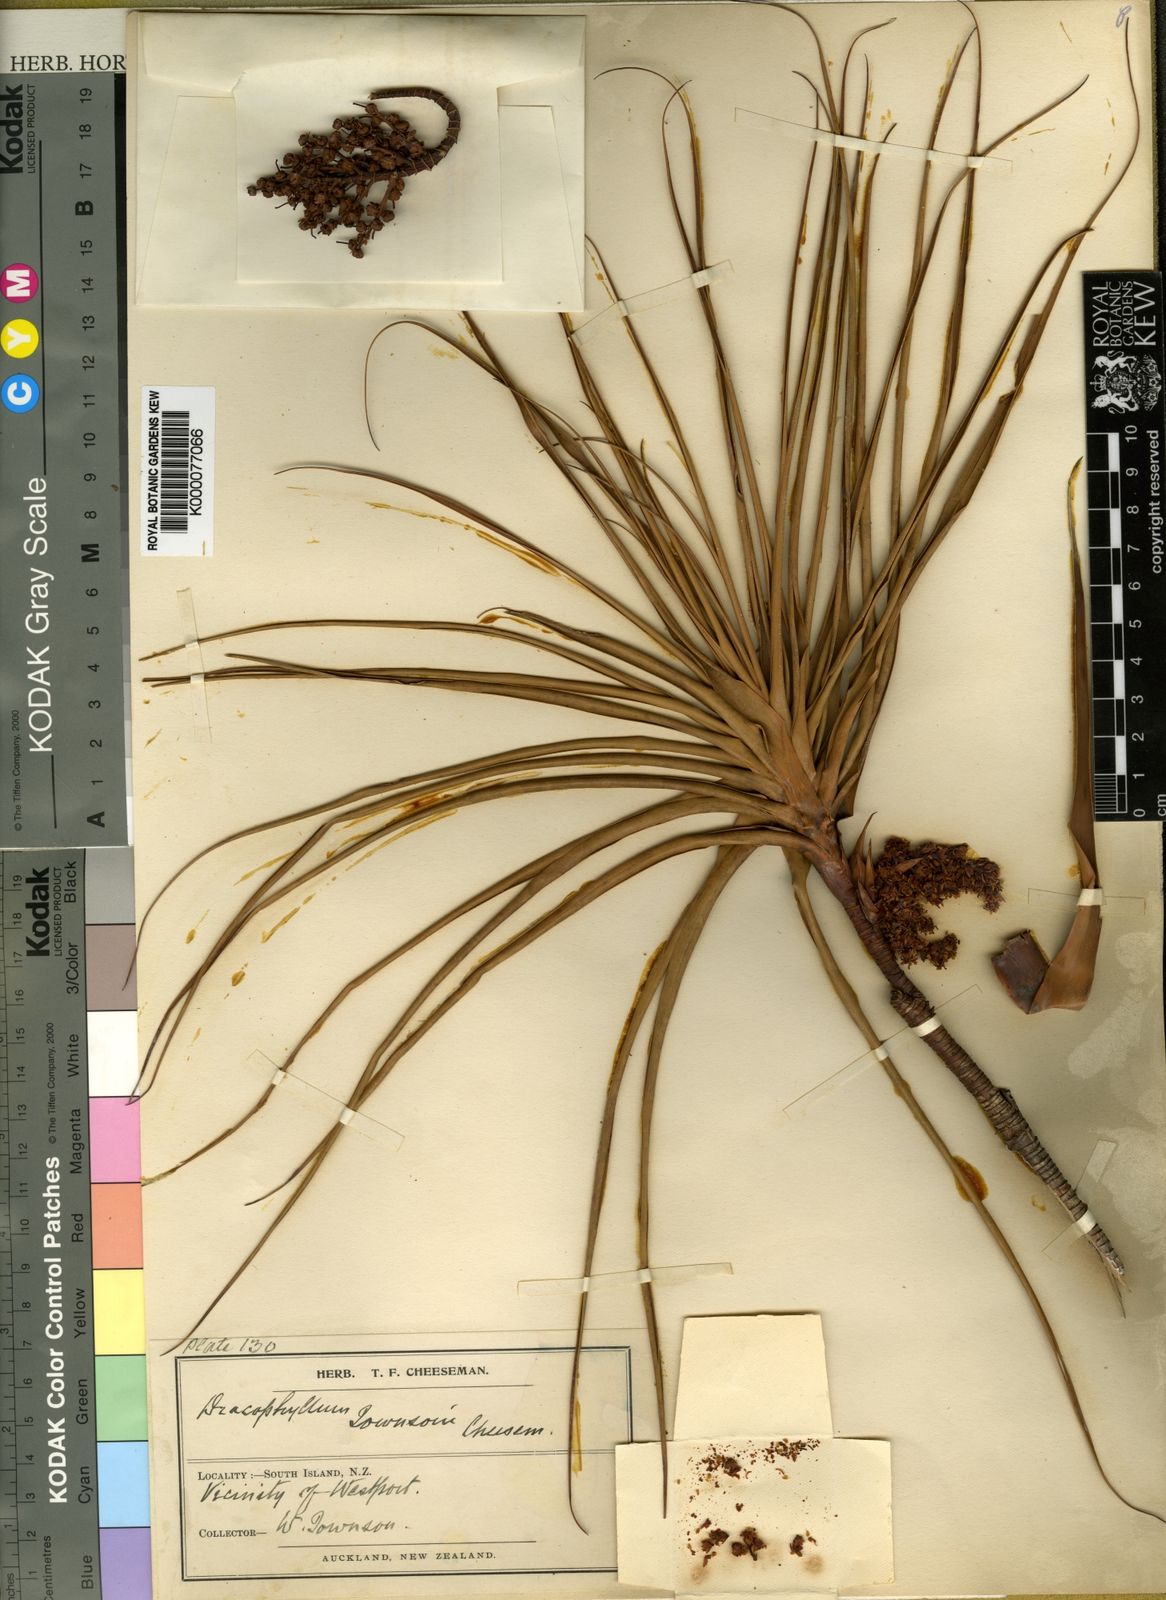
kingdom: Plantae
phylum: Tracheophyta
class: Magnoliopsida
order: Ericales
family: Ericaceae
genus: Dracophyllum
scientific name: Dracophyllum townsonii
